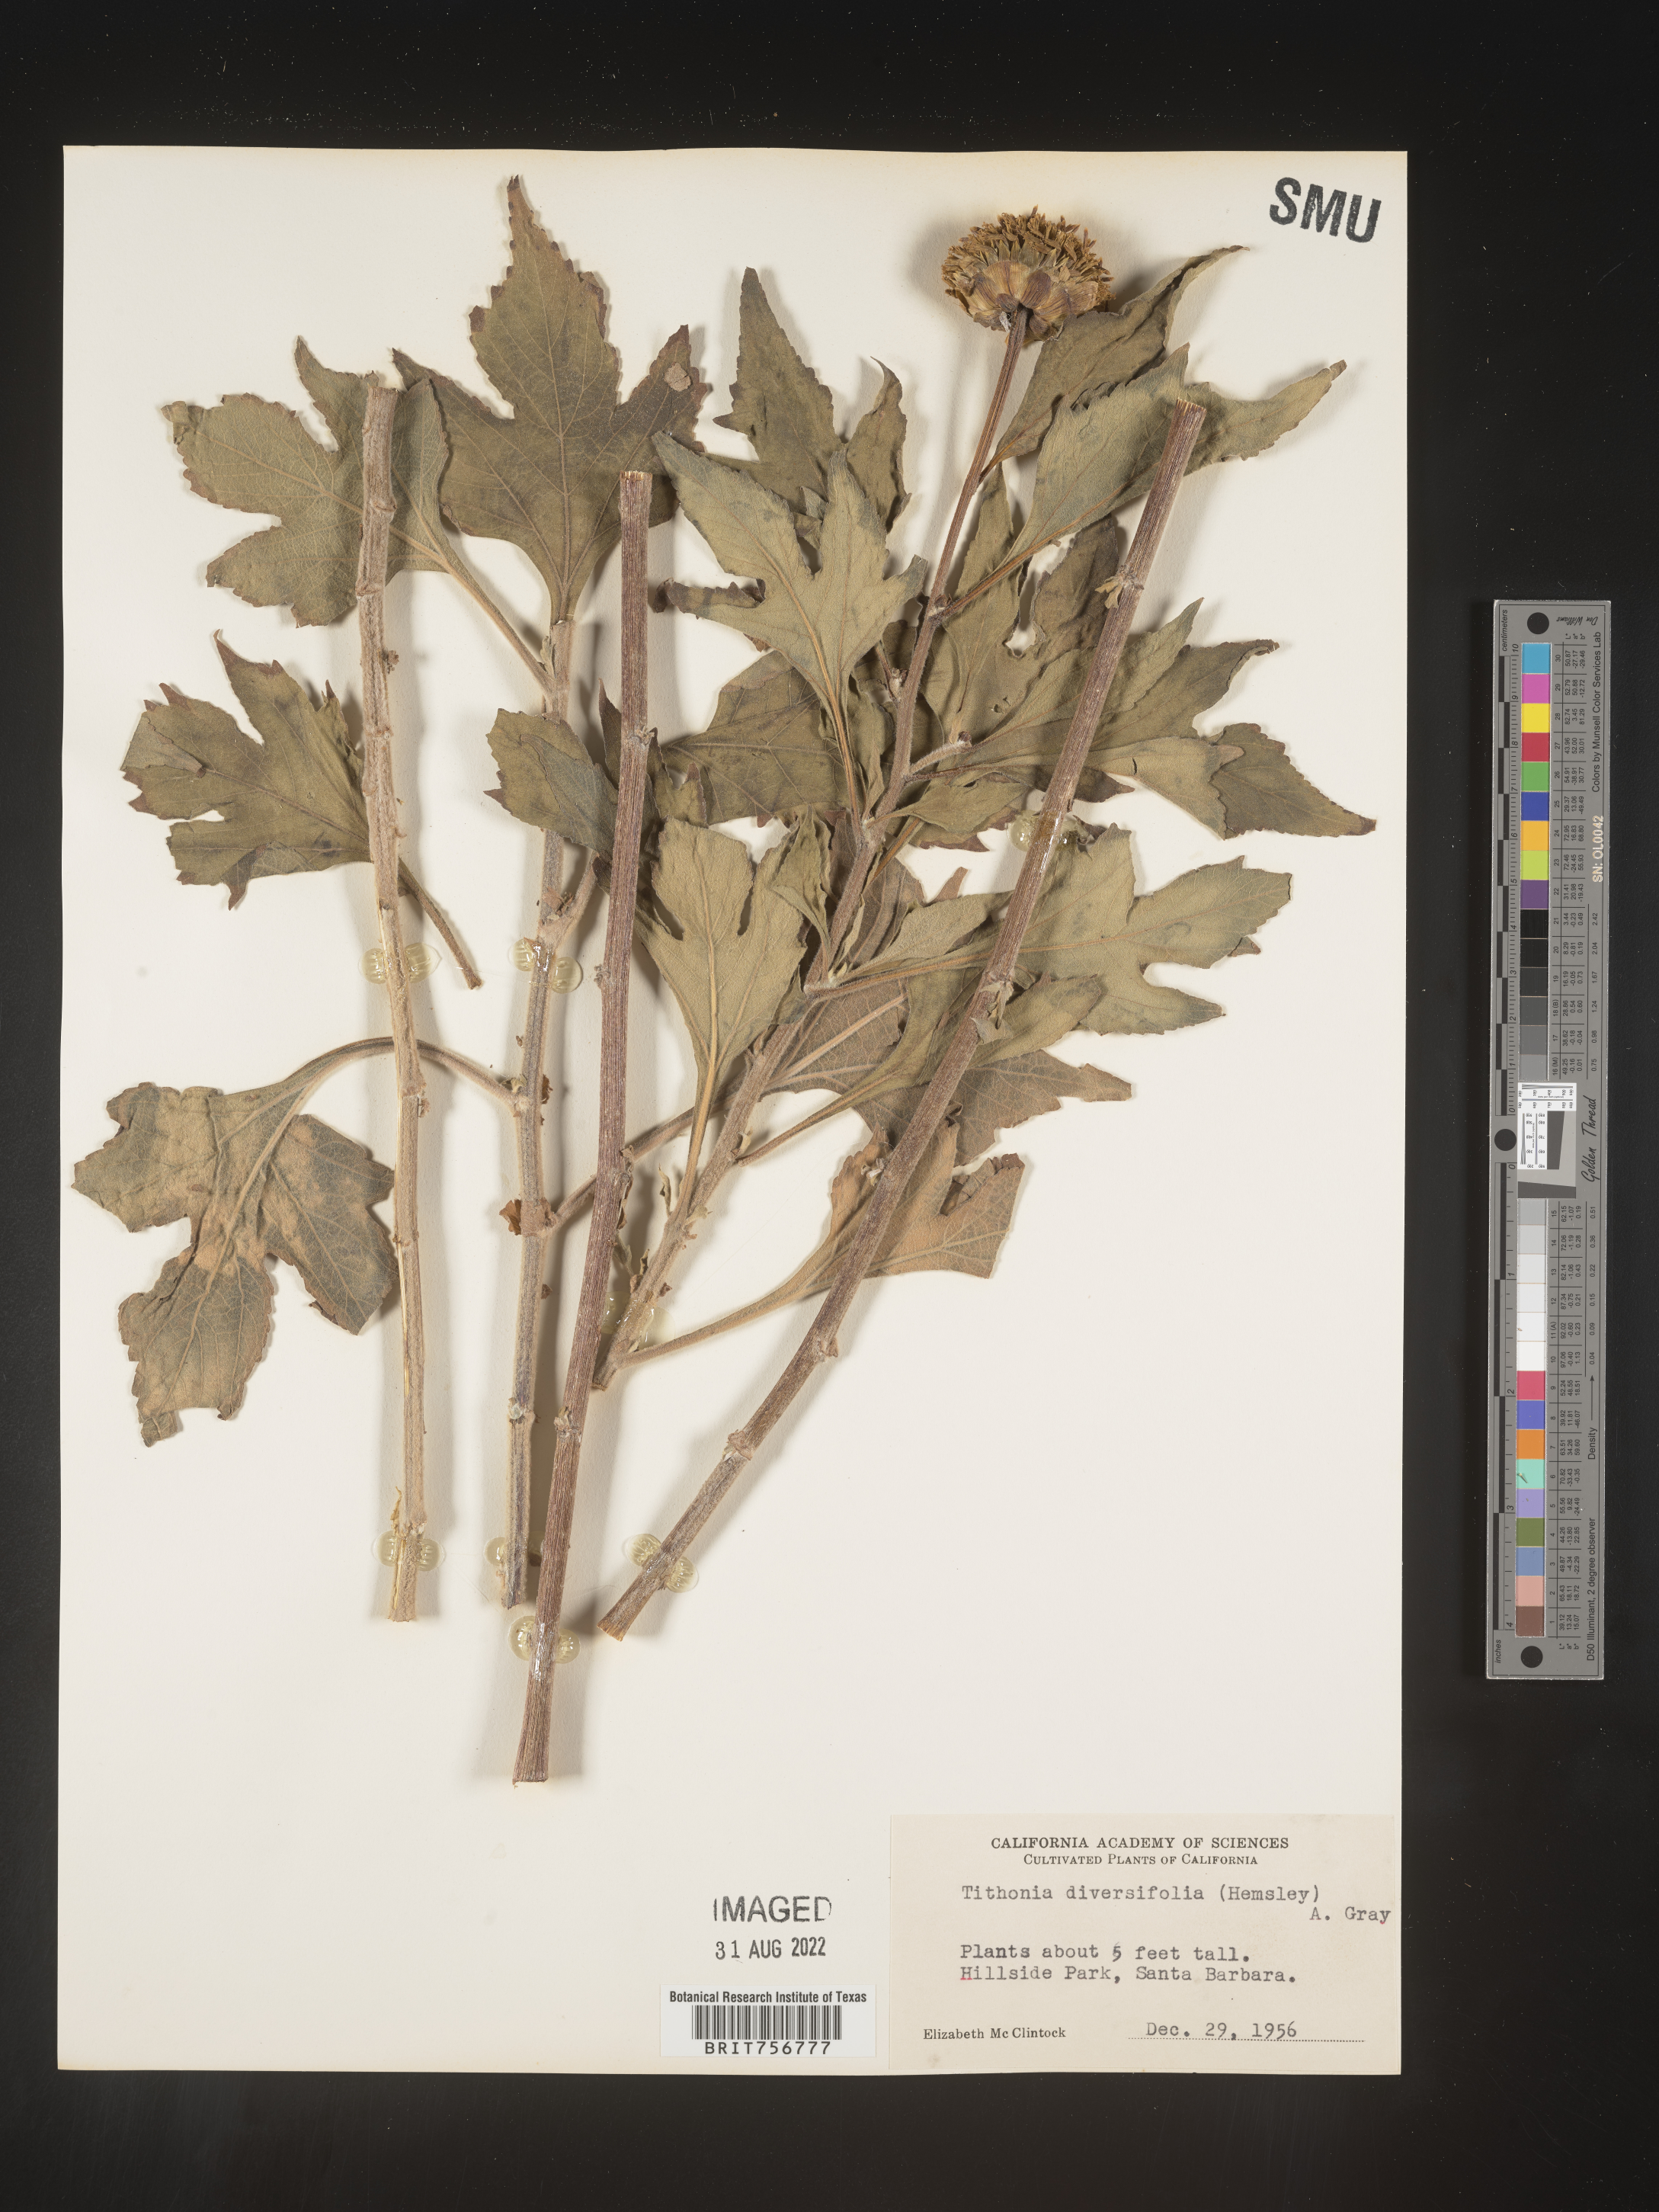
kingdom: Plantae
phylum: Tracheophyta
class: Magnoliopsida
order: Asterales
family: Asteraceae
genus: Tithonia
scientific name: Tithonia
